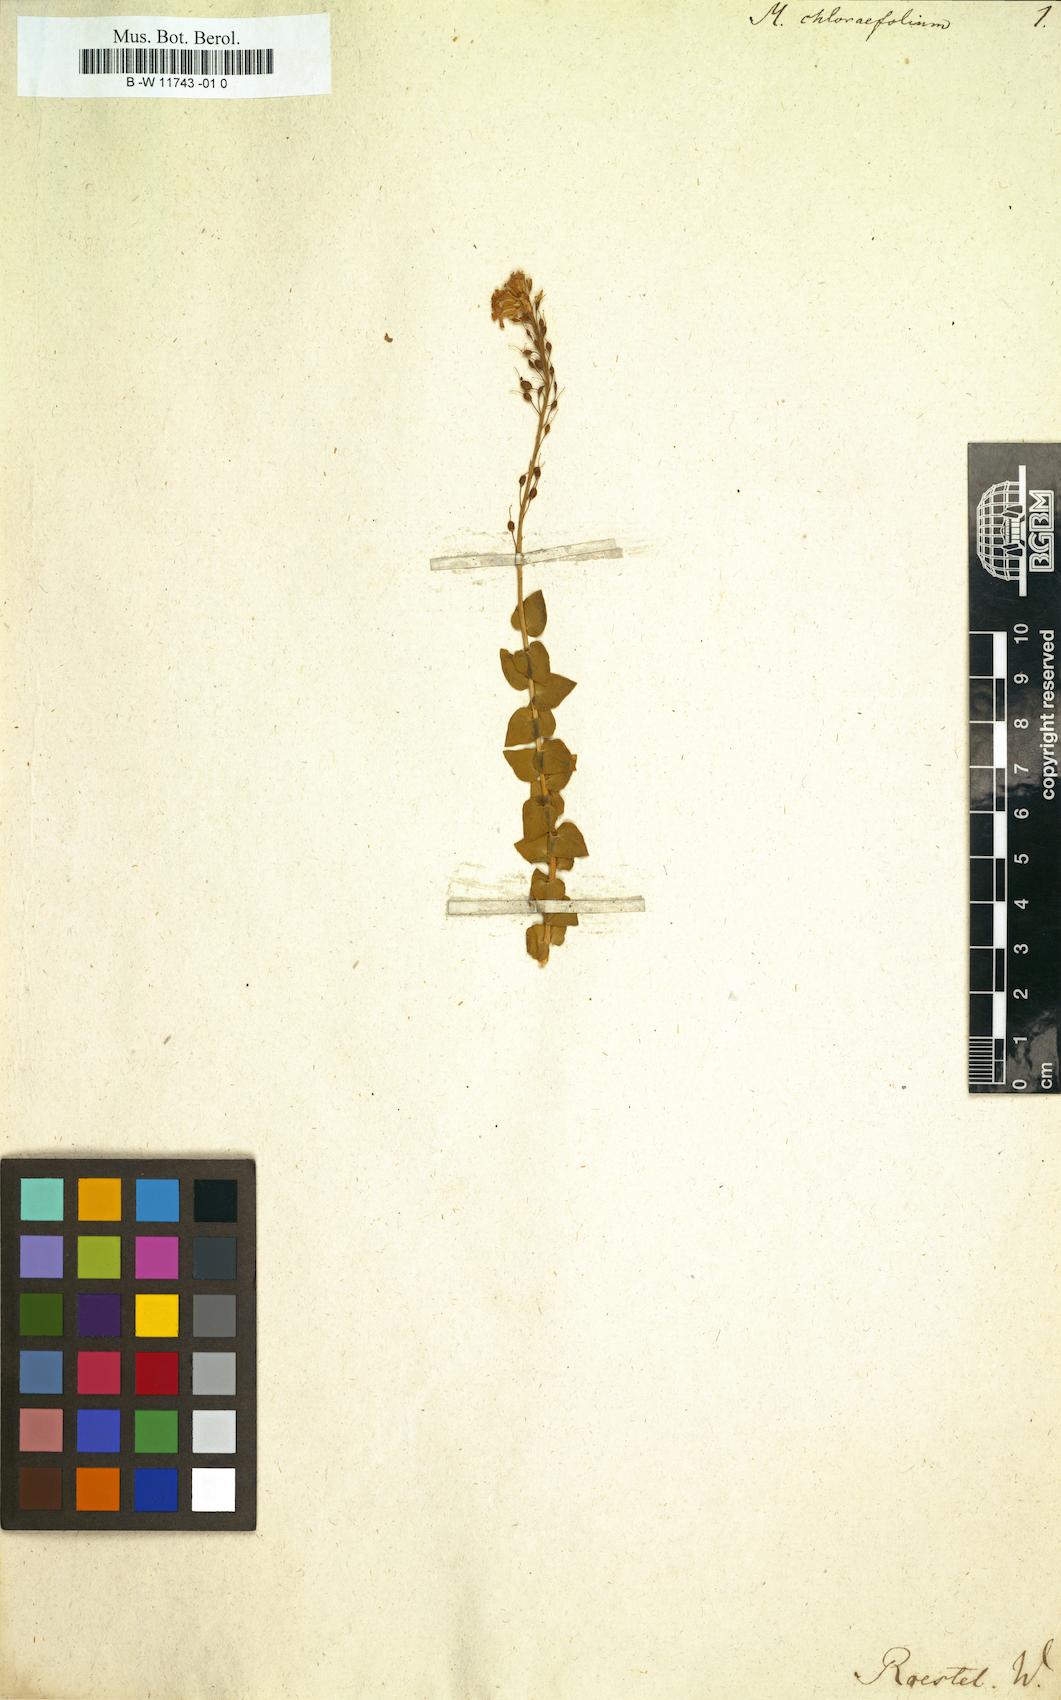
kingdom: Plantae
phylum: Tracheophyta
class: Magnoliopsida
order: Brassicales
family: Brassicaceae
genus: Aethionema
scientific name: Aethionema cordatum
